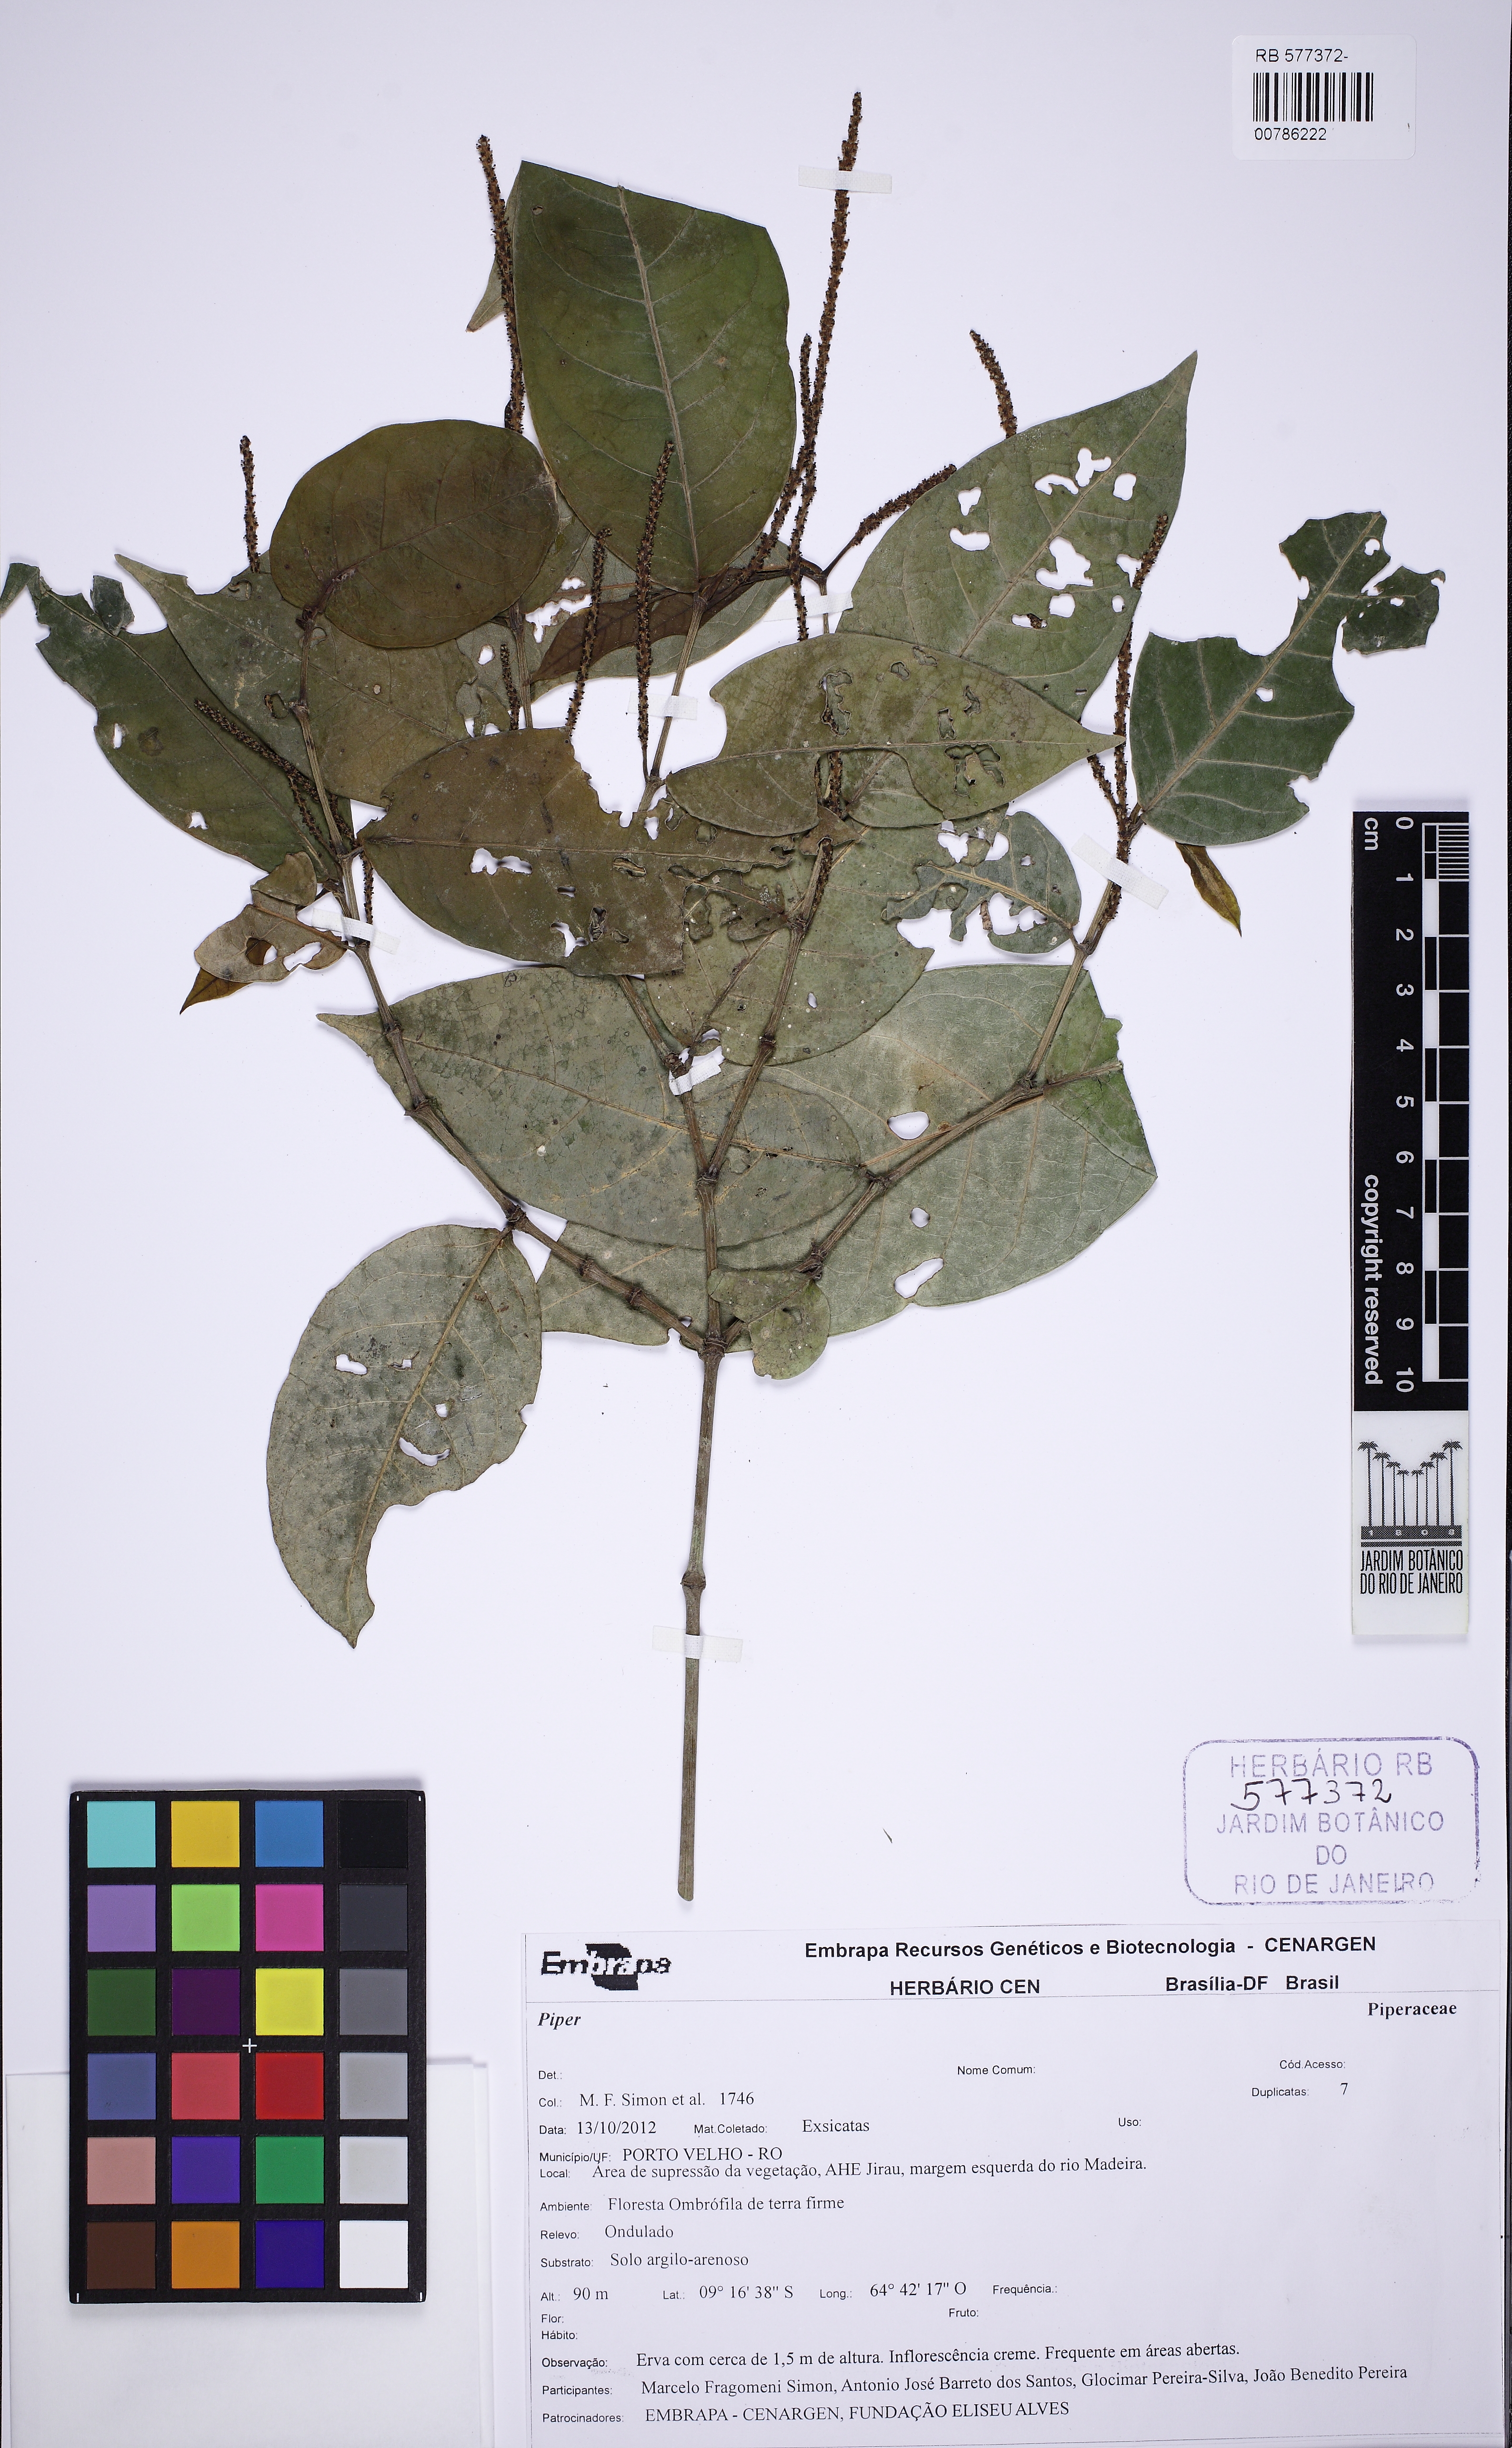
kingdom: Plantae
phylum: Tracheophyta
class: Magnoliopsida
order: Piperales
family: Piperaceae
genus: Piper
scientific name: Piper ottonoides
